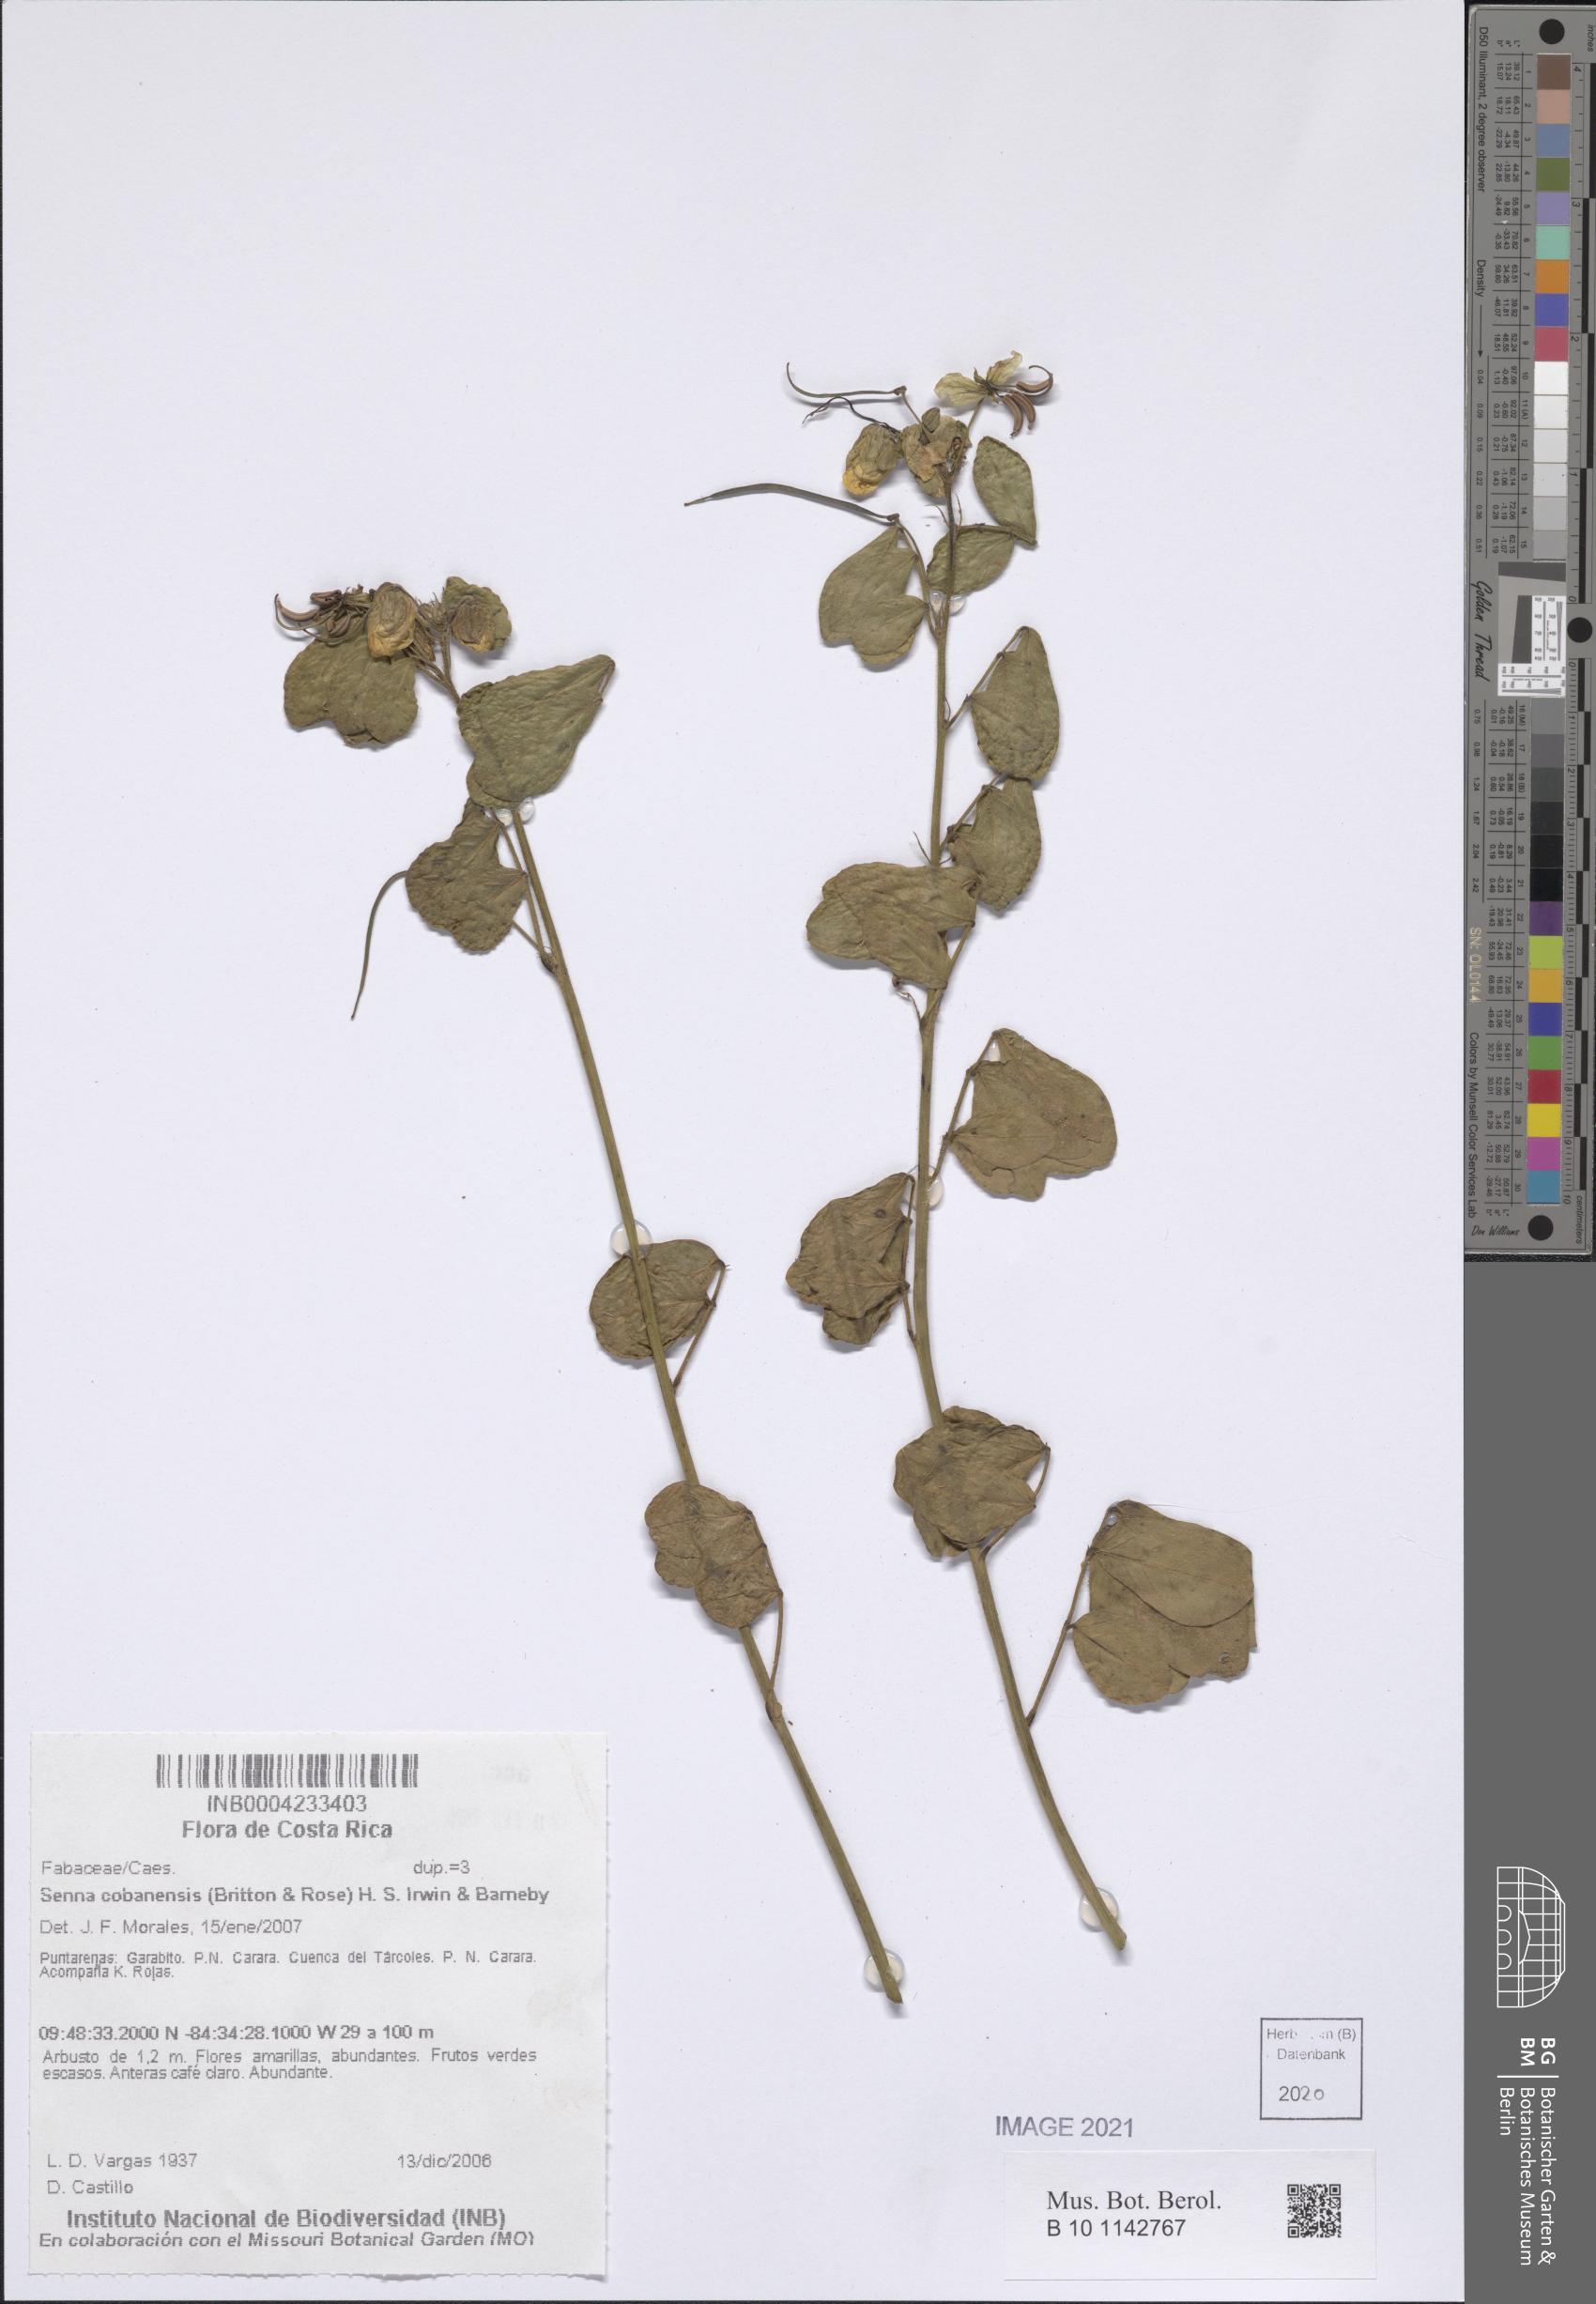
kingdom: Plantae
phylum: Tracheophyta
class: Magnoliopsida
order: Fabales
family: Fabaceae
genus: Senna
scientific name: Senna cobanensis
